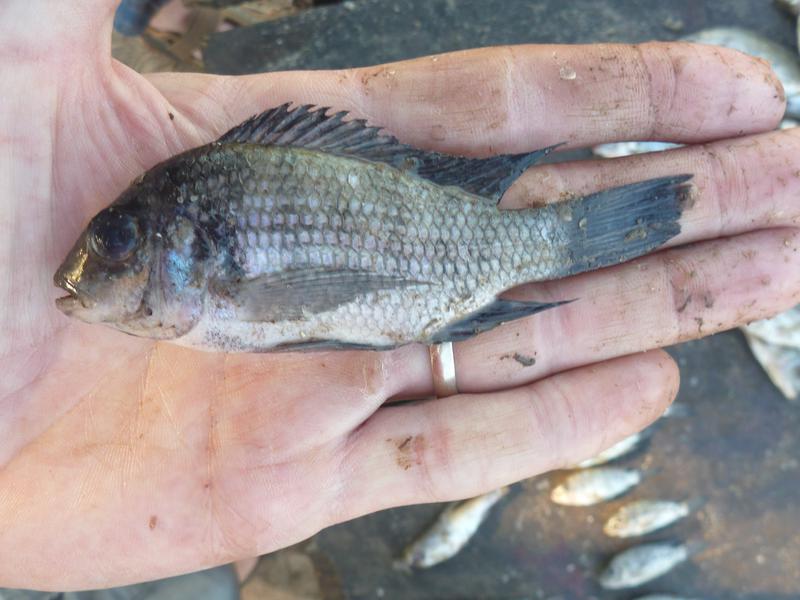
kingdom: Animalia
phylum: Chordata
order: Perciformes
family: Cichlidae
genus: Coptodon
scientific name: Coptodon rendalli
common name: Redbreast tilapia
